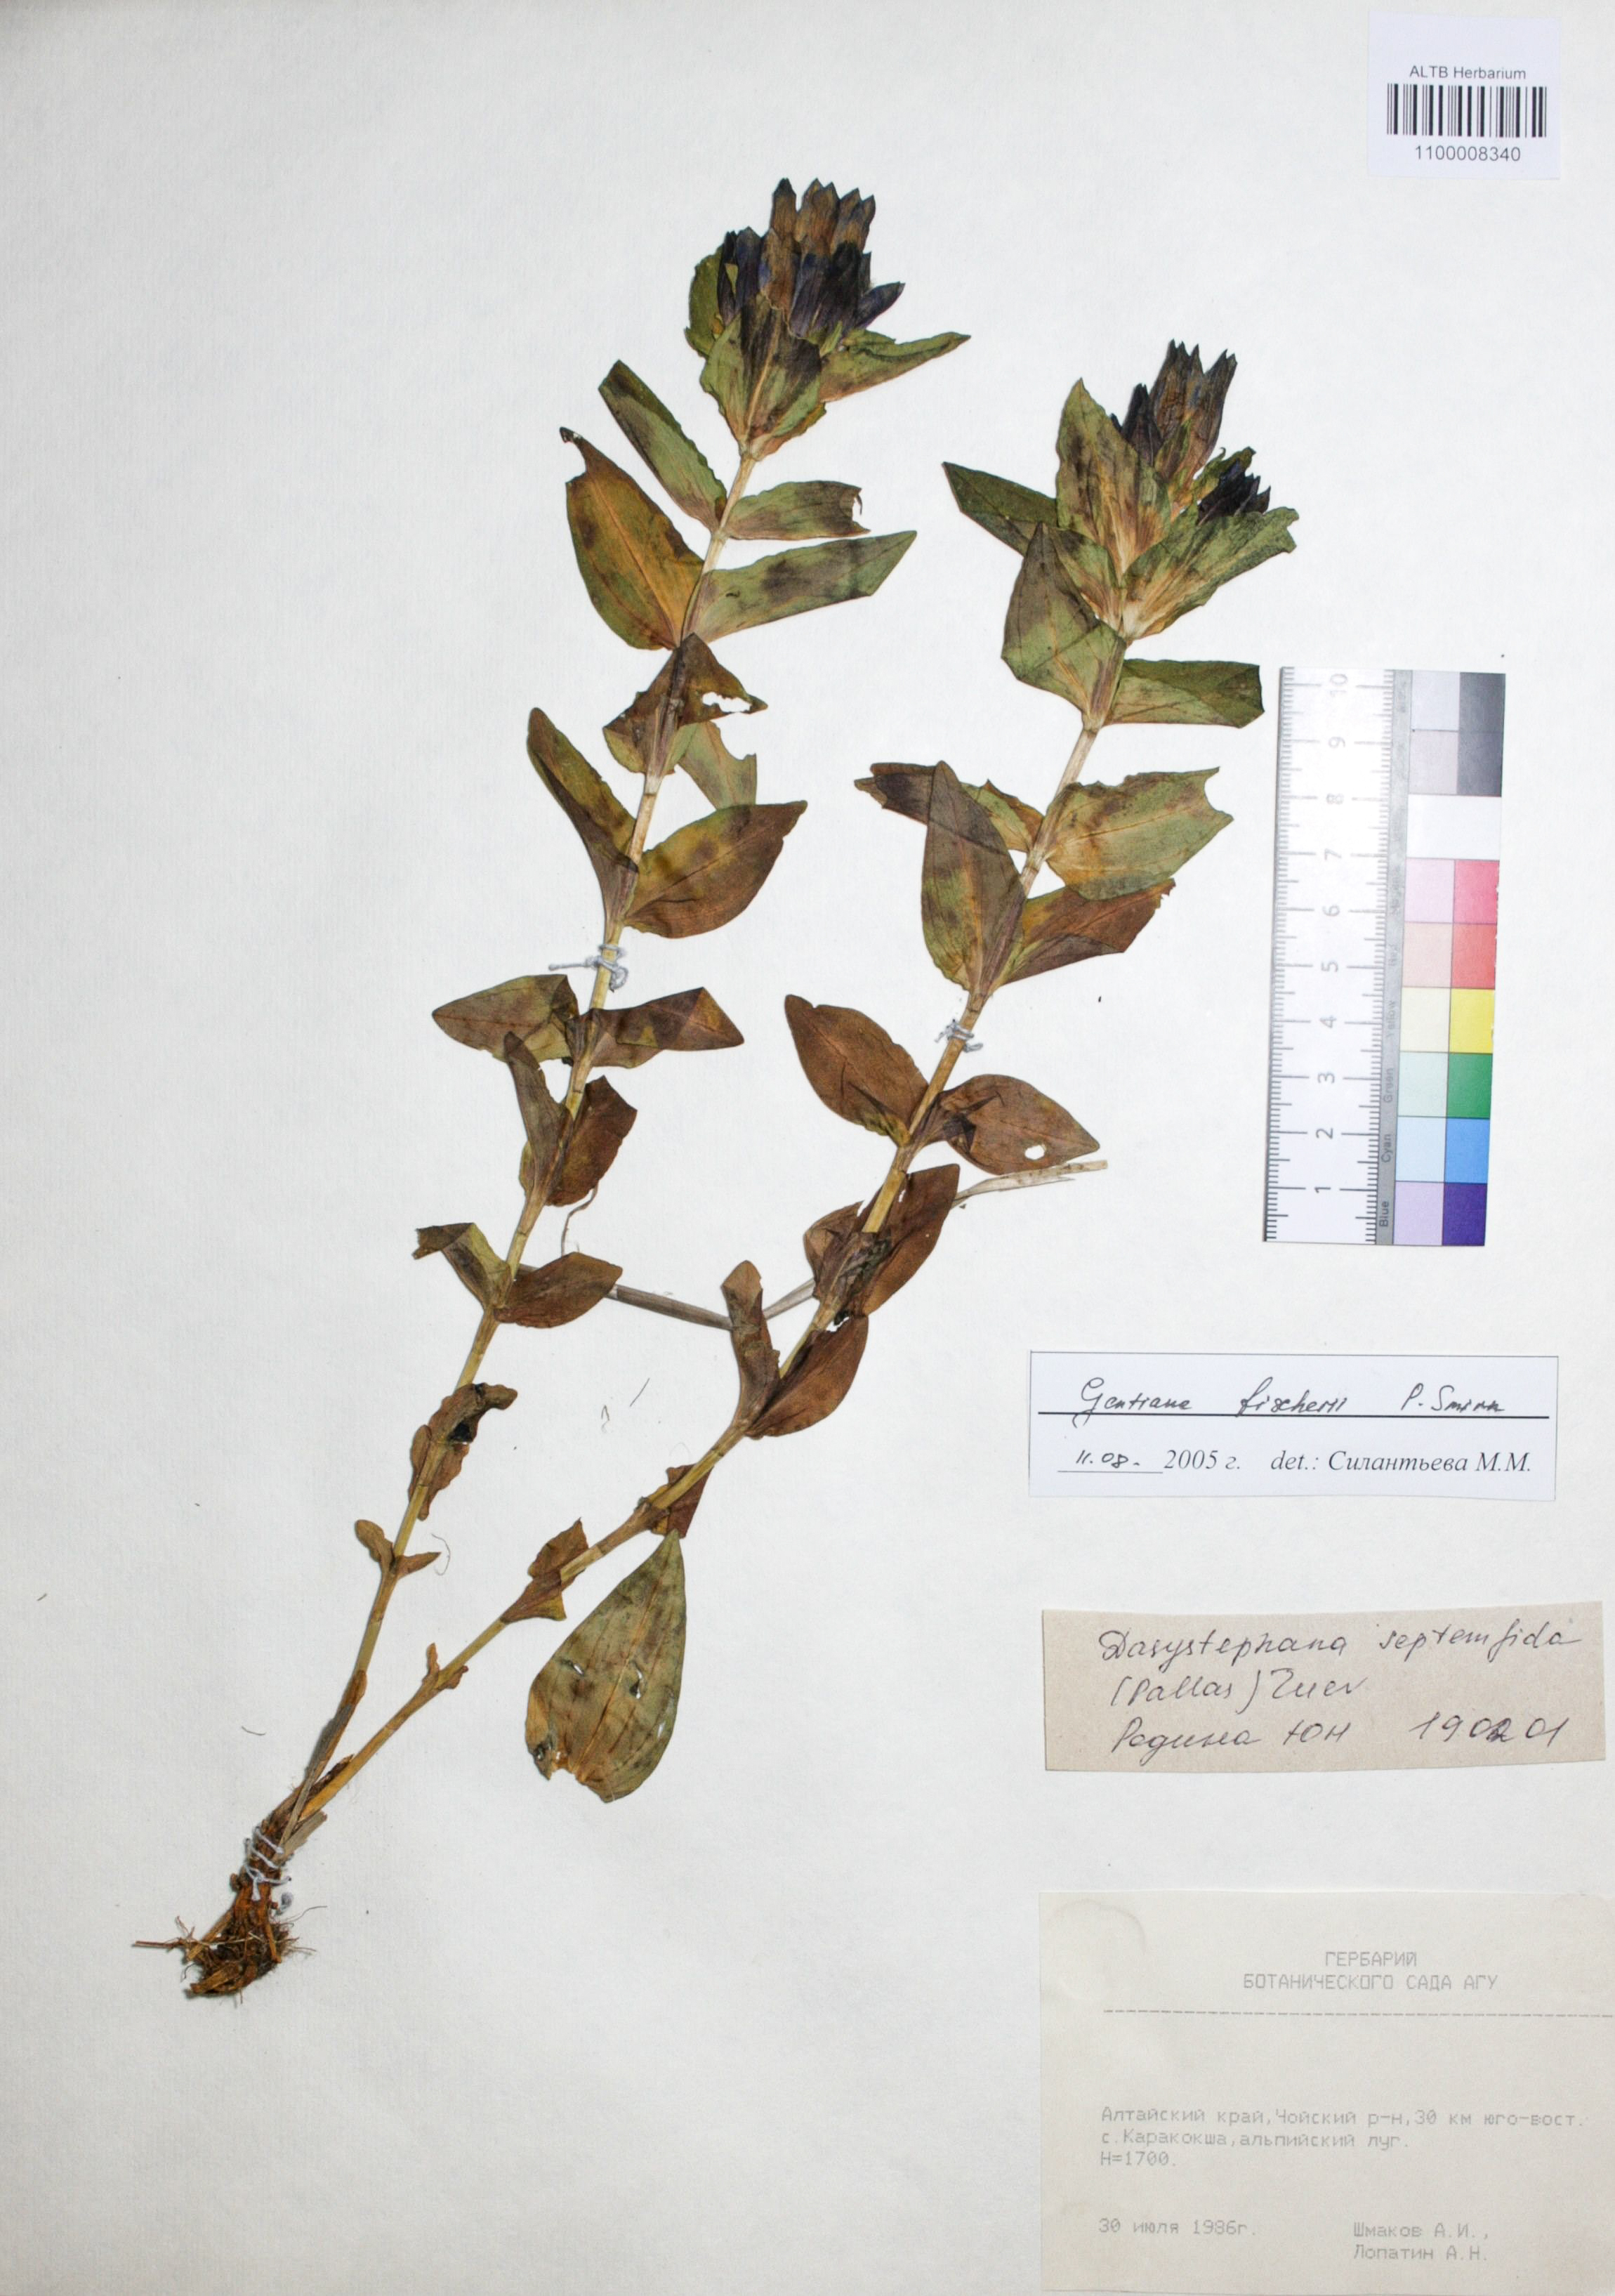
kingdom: Plantae
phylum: Tracheophyta
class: Magnoliopsida
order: Gentianales
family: Gentianaceae
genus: Gentiana
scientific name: Gentiana septemfida
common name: Crested gentian
